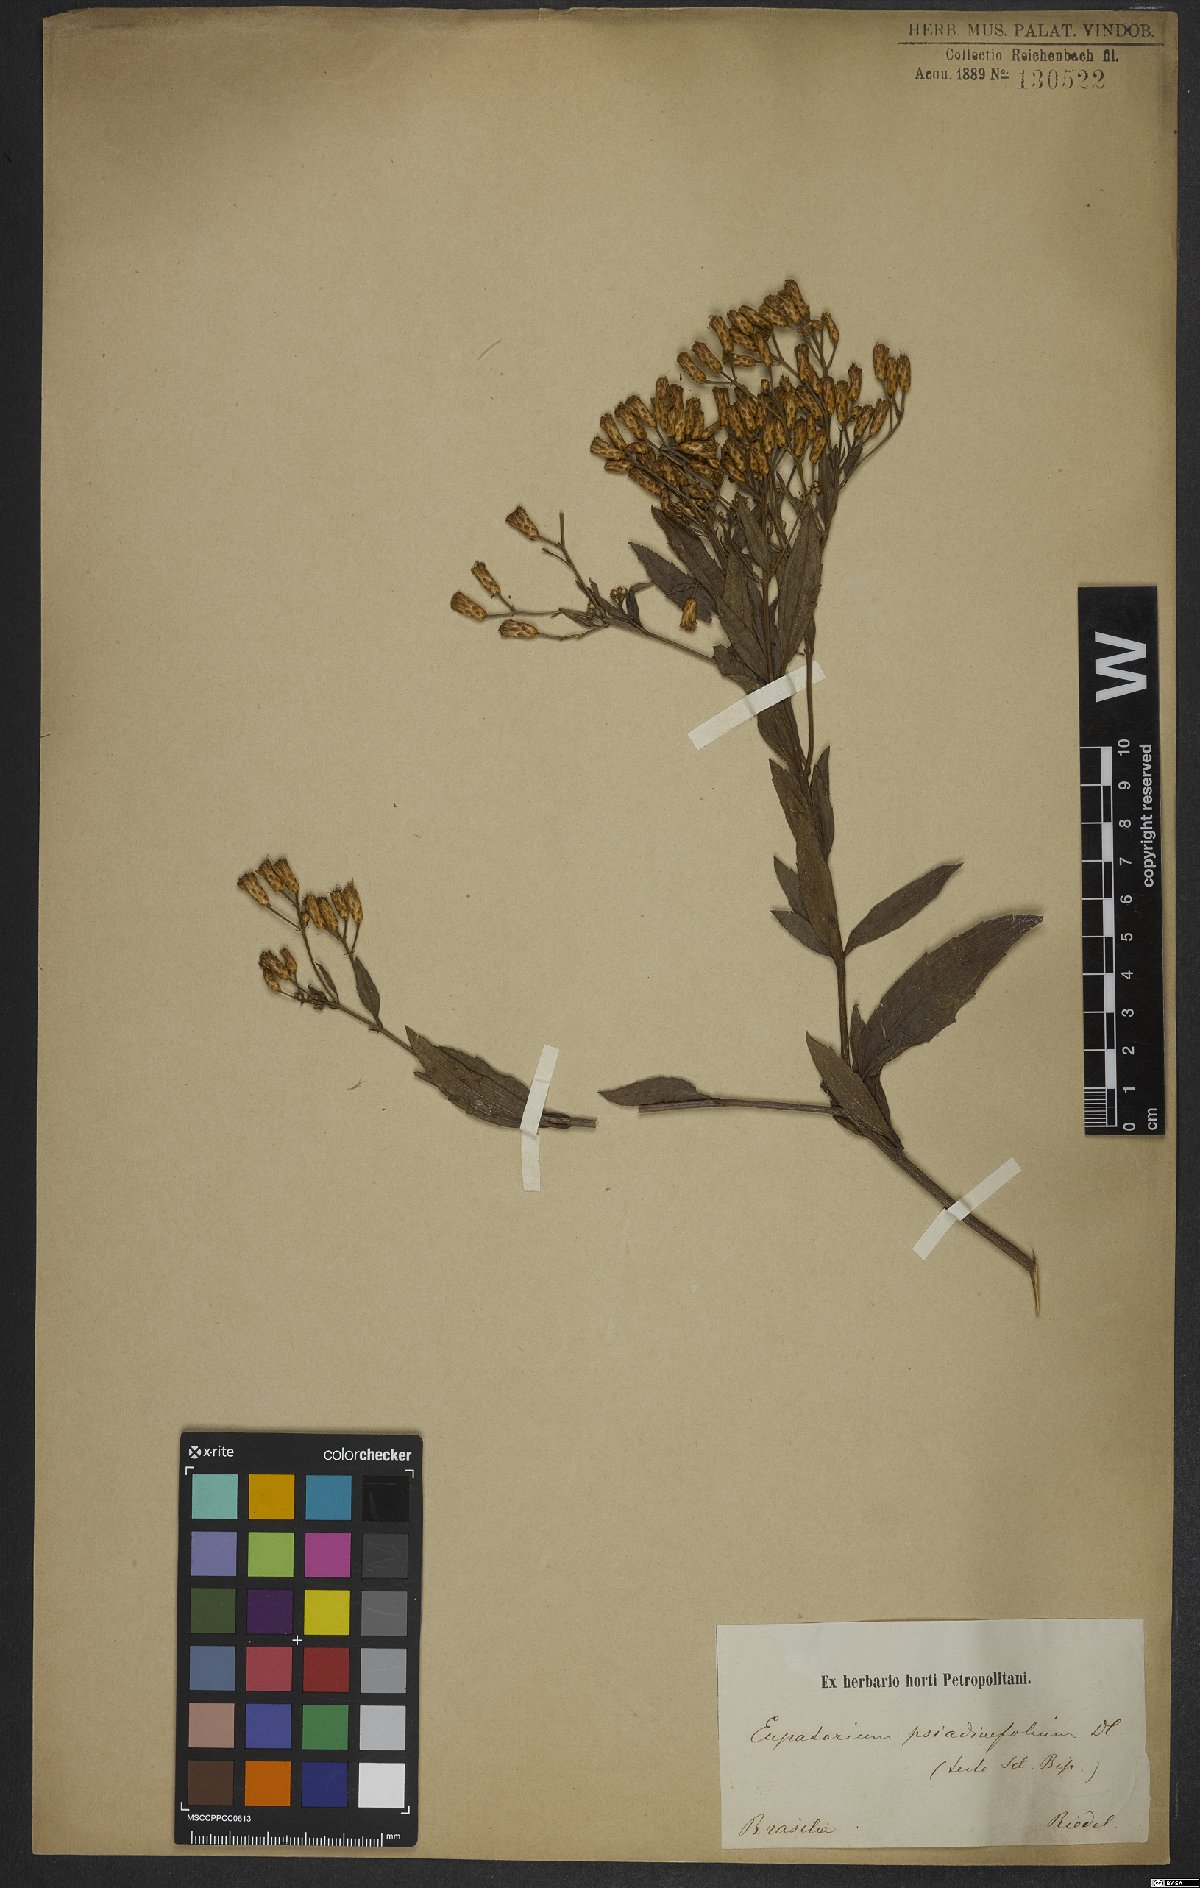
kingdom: Plantae
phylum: Tracheophyta
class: Magnoliopsida
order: Asterales
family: Asteraceae
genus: Eupatorium
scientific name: Eupatorium laevigatum
